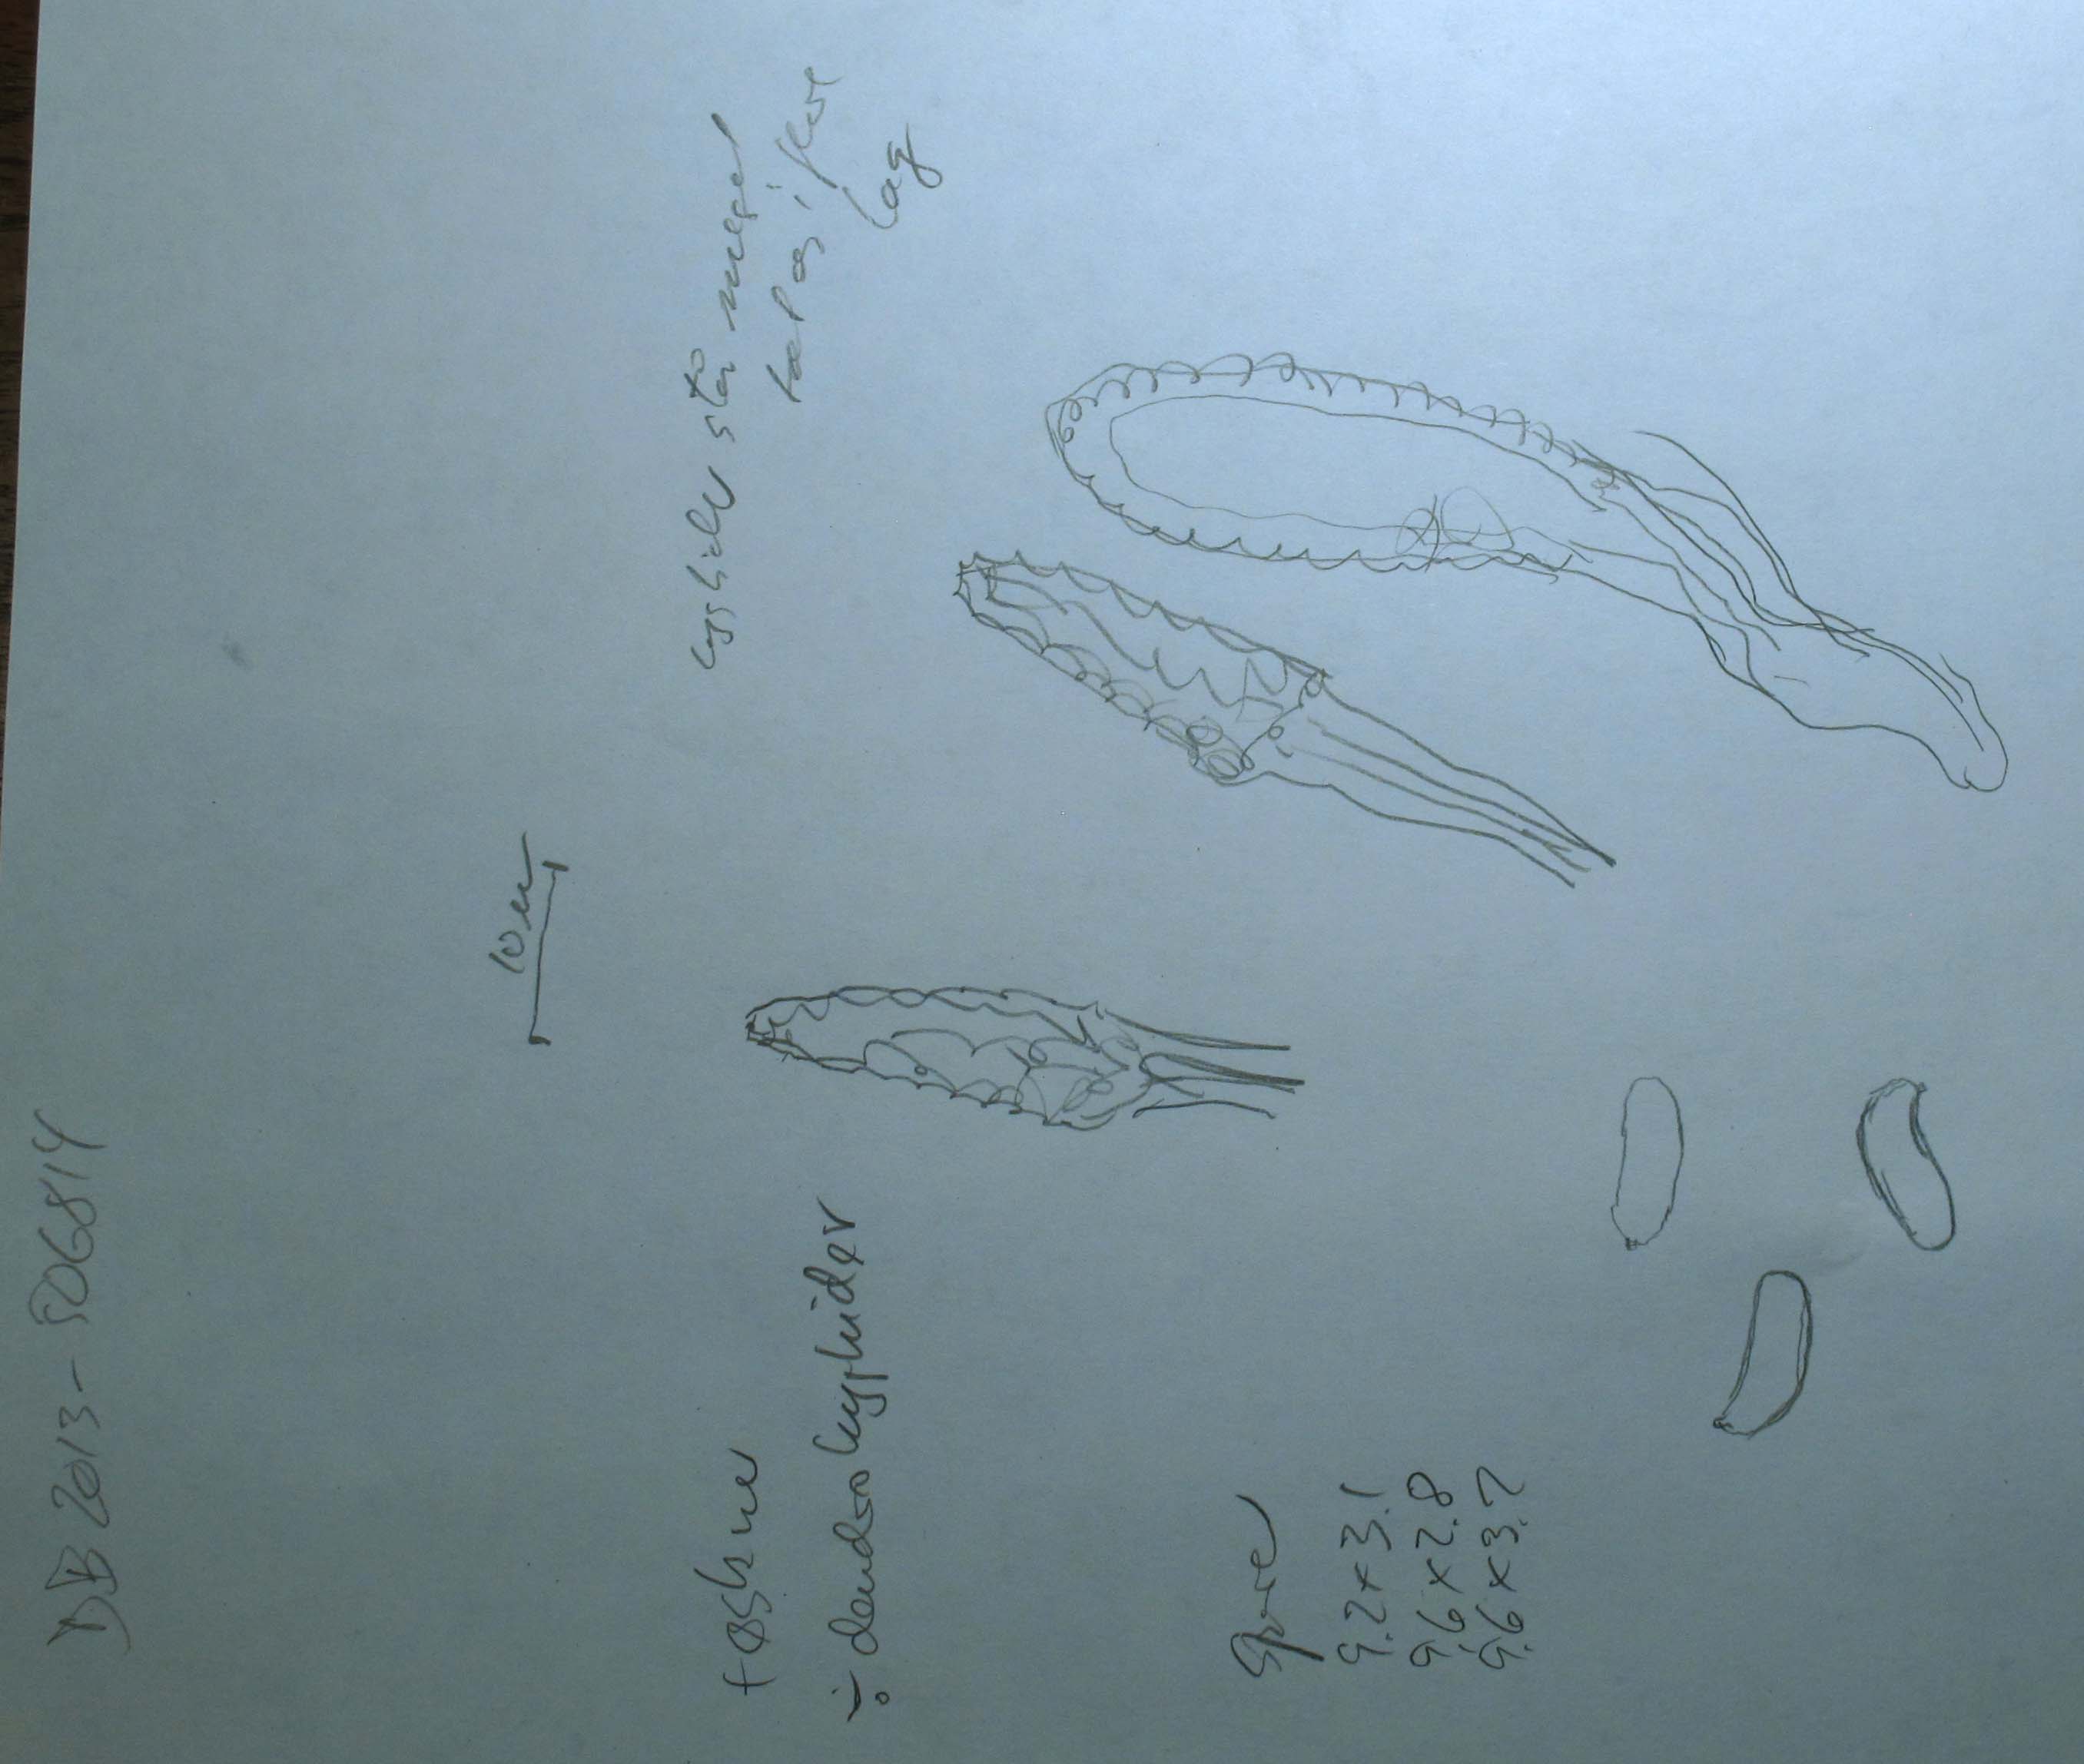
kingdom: Fungi
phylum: Basidiomycota
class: Agaricomycetes
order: Russulales
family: Peniophoraceae
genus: Peniophora
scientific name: Peniophora cinerea
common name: grå voksskind
